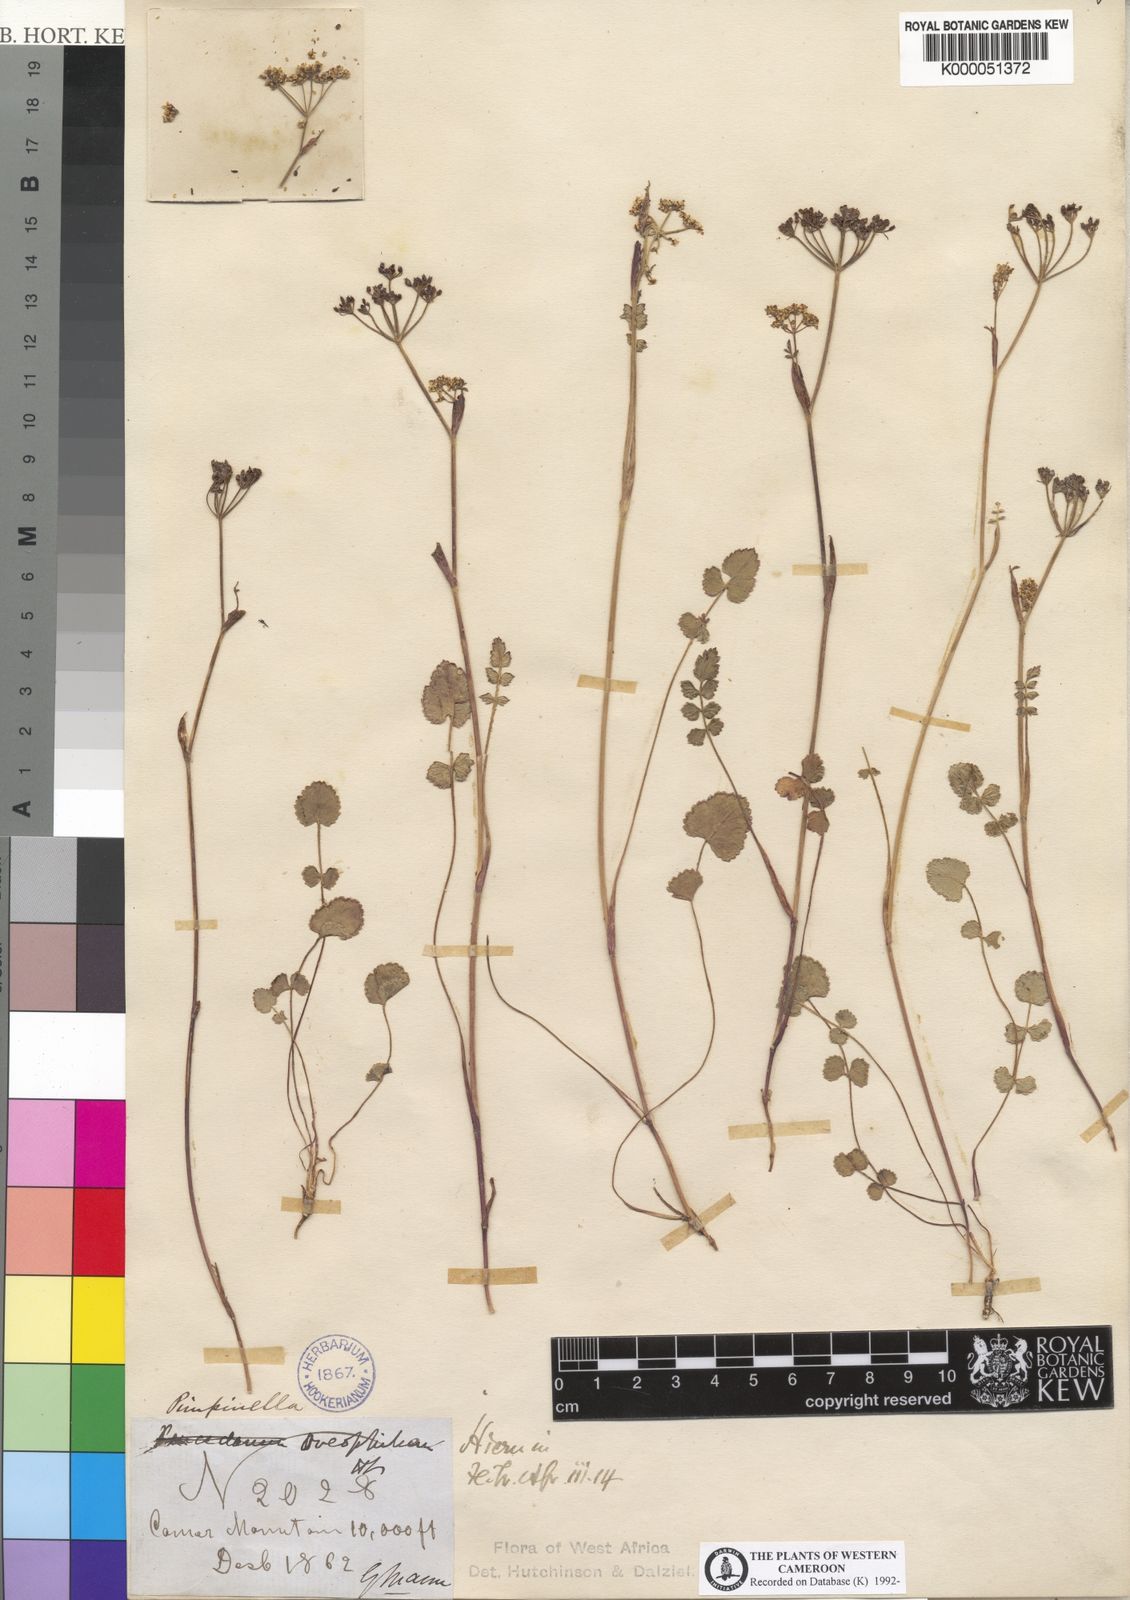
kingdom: Plantae
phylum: Tracheophyta
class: Magnoliopsida
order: Apiales
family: Apiaceae
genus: Pimpinella
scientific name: Pimpinella oreophila
